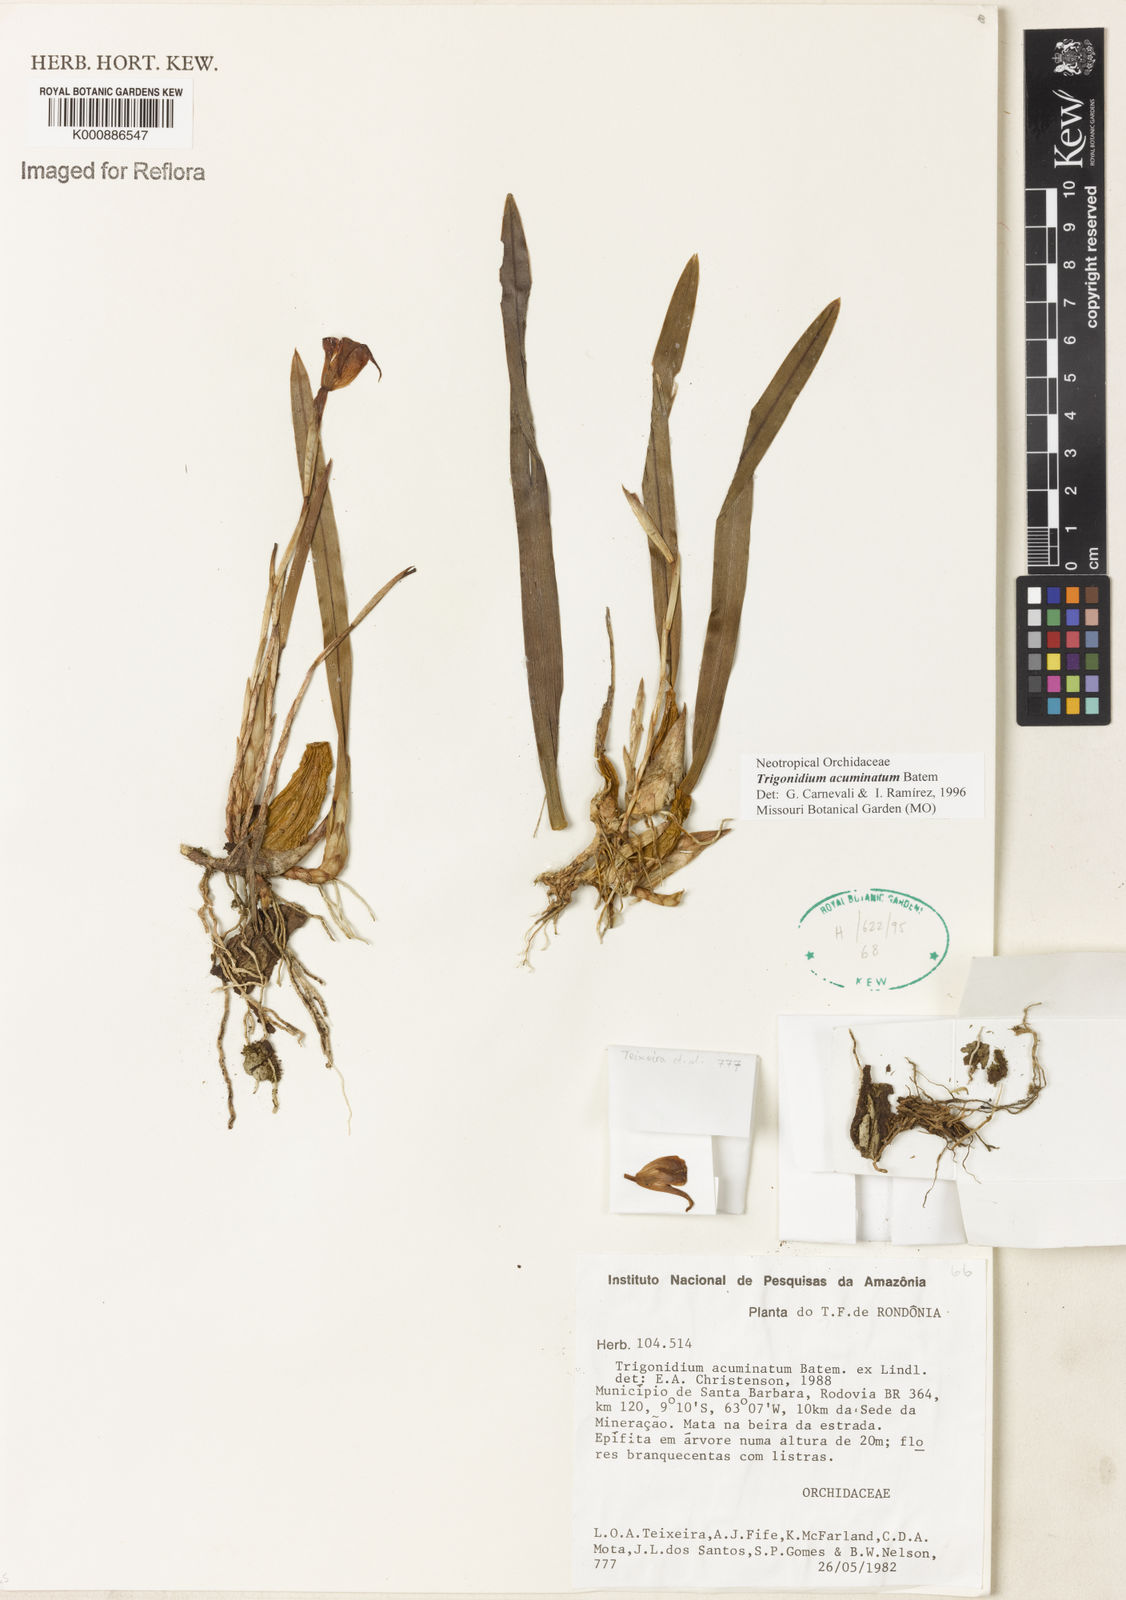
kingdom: Animalia
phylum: Arthropoda
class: Insecta
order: Orthoptera
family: Trigonidiidae
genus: Trigonidium
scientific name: Trigonidium
